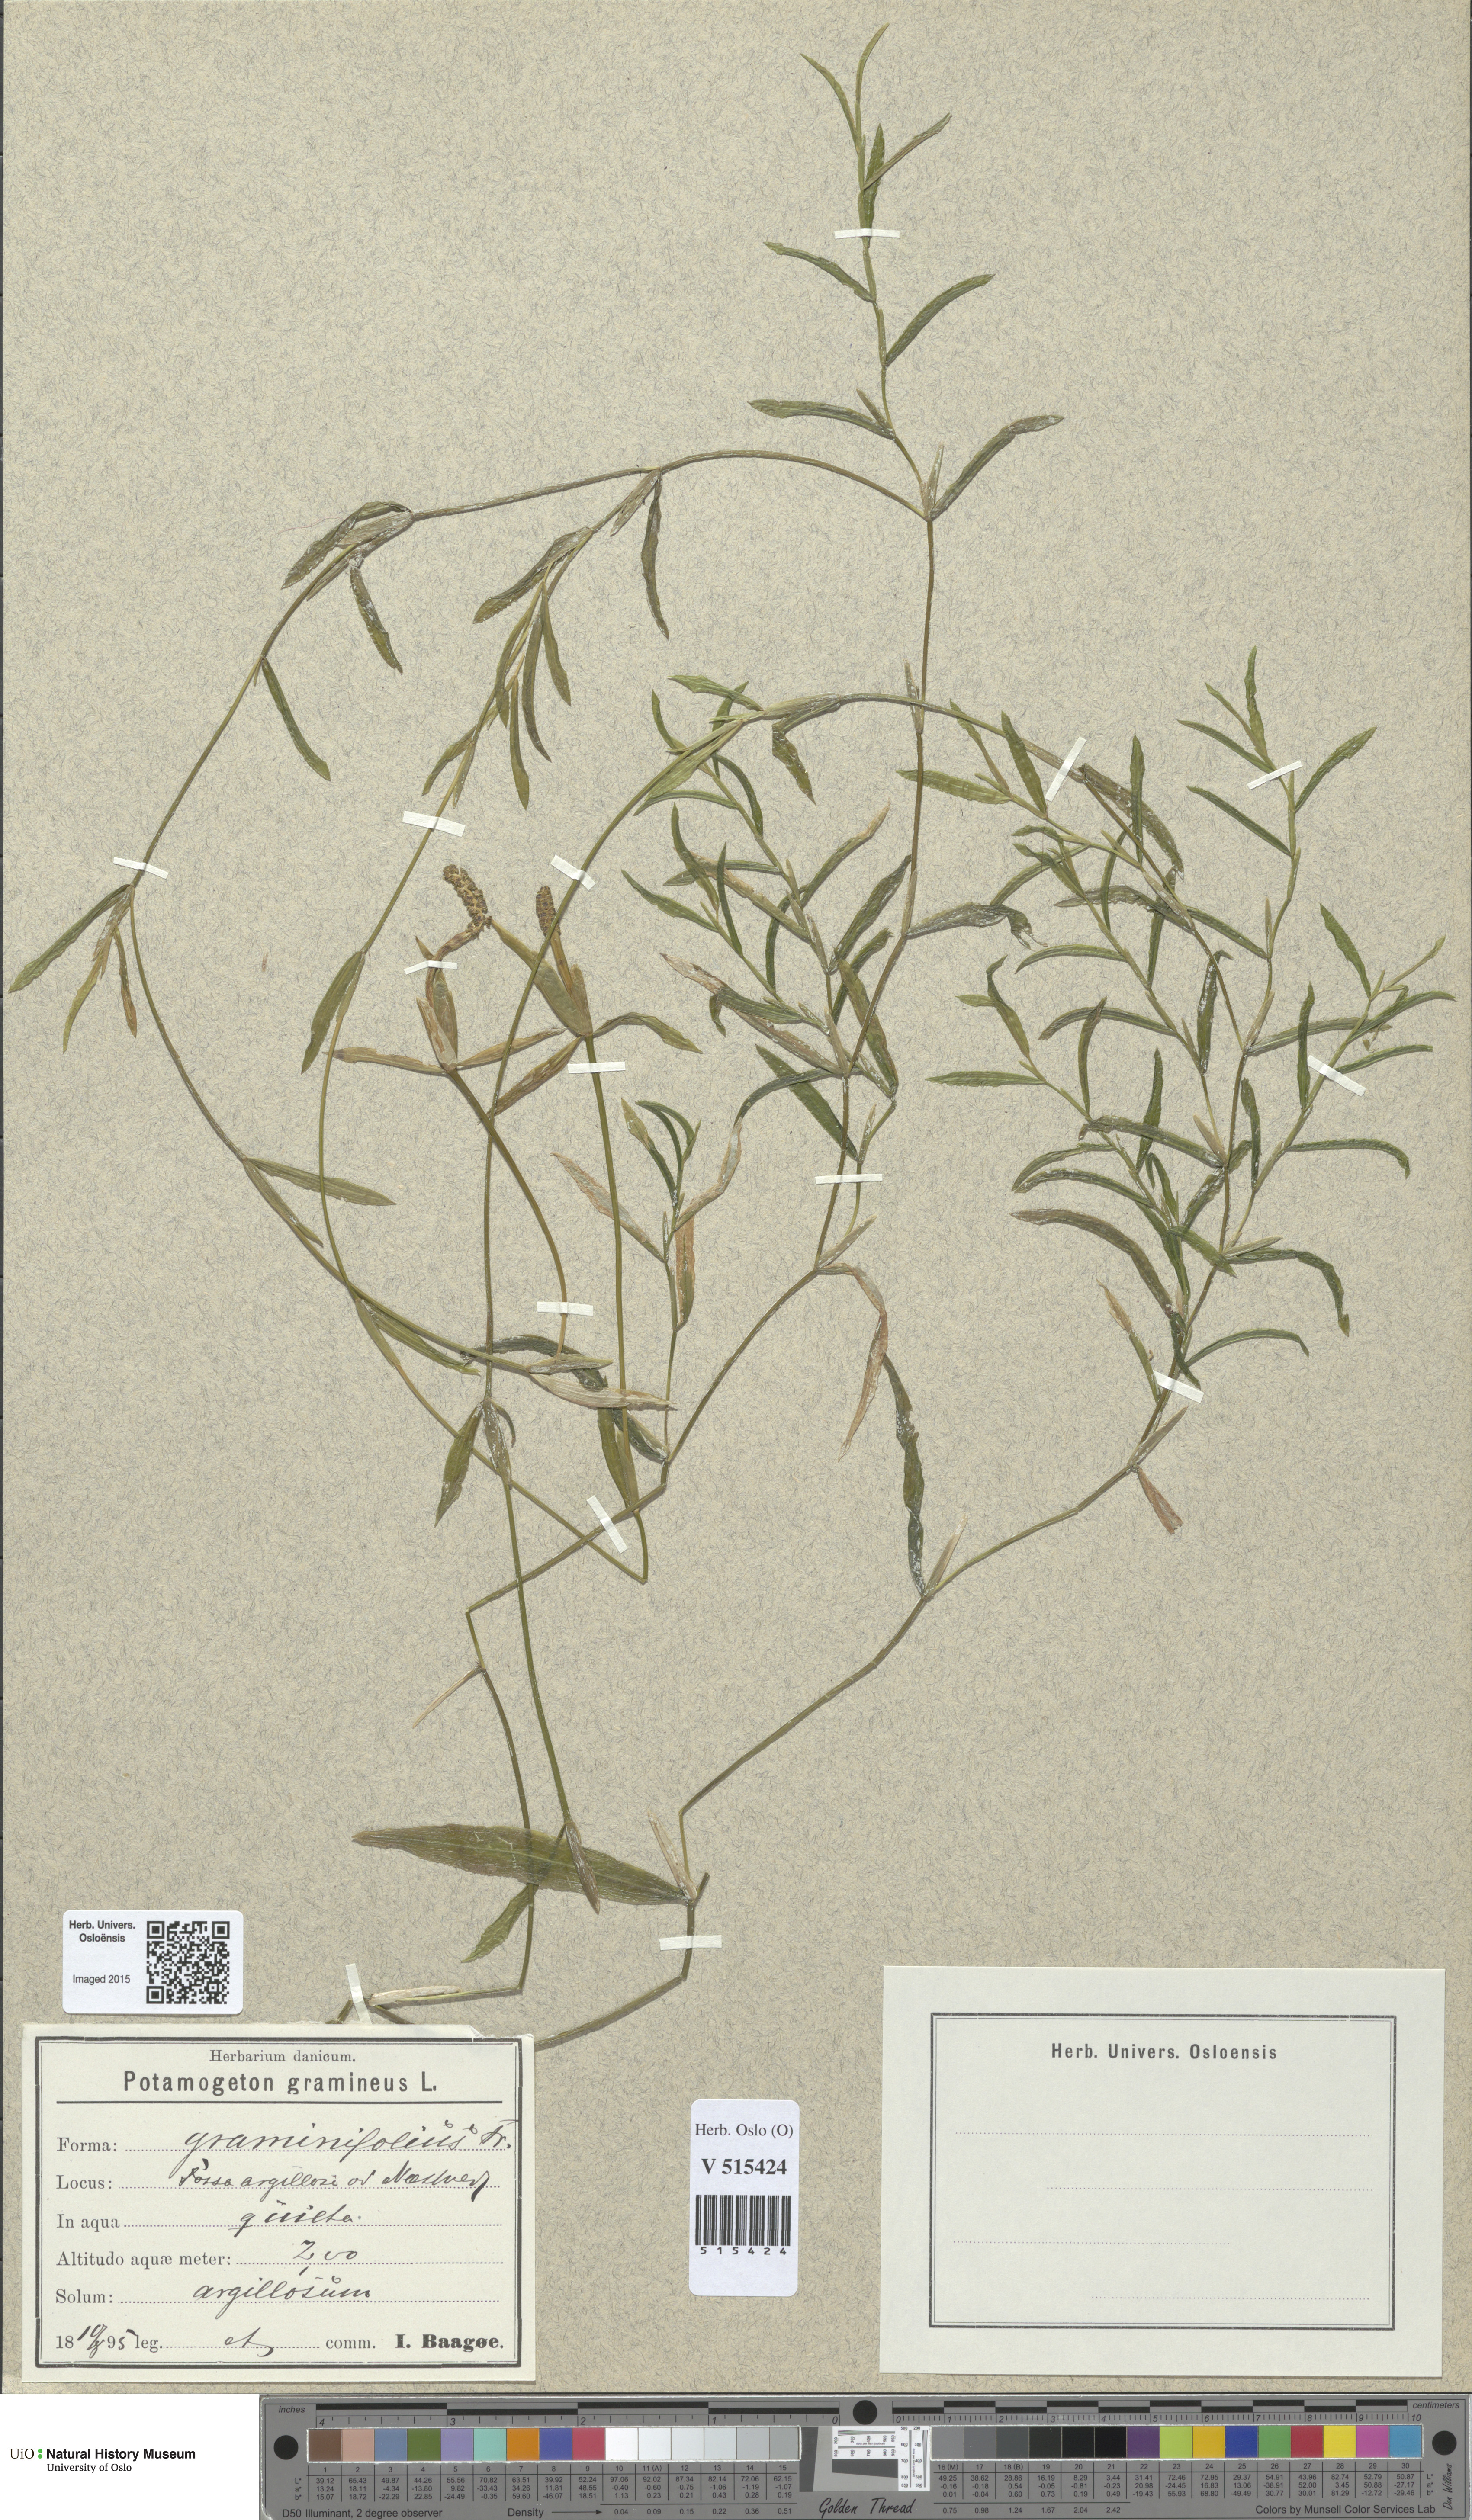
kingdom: Plantae
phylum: Tracheophyta
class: Liliopsida
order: Alismatales
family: Potamogetonaceae
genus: Potamogeton
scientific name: Potamogeton gramineus
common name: Various-leaved pondweed
